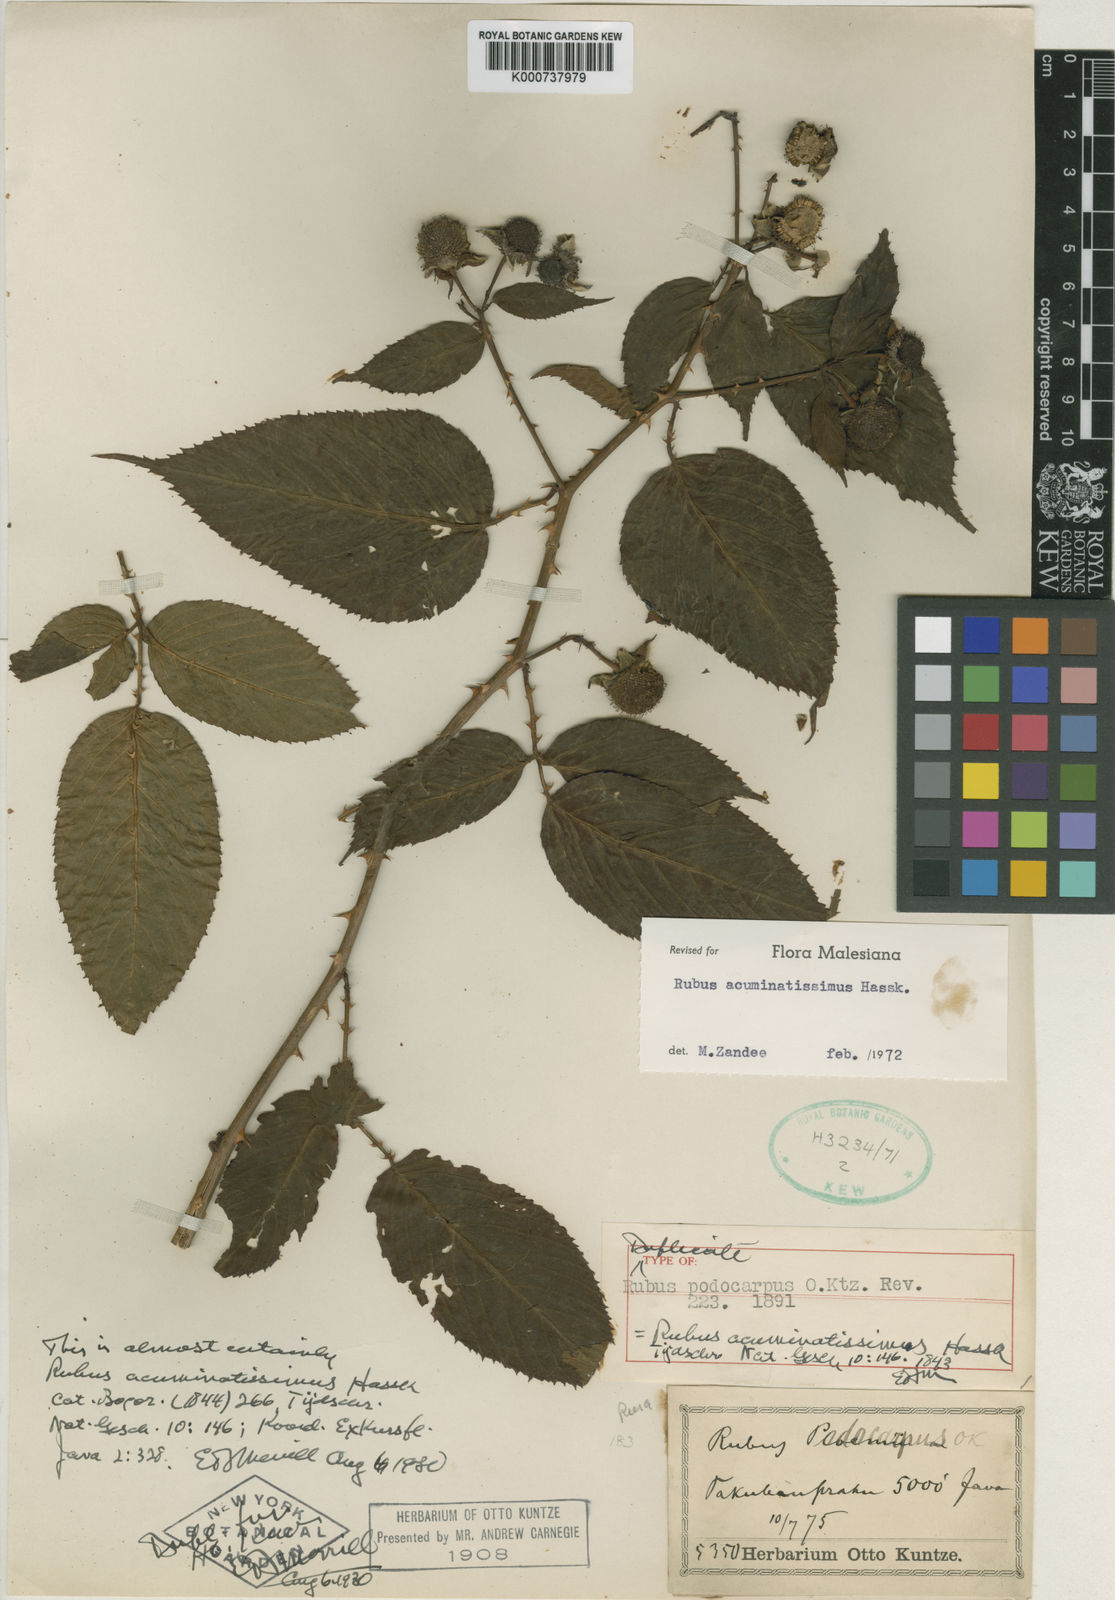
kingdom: Plantae
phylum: Tracheophyta
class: Magnoliopsida
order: Rosales
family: Rosaceae
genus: Rubus
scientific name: Rubus acuminatissimus
